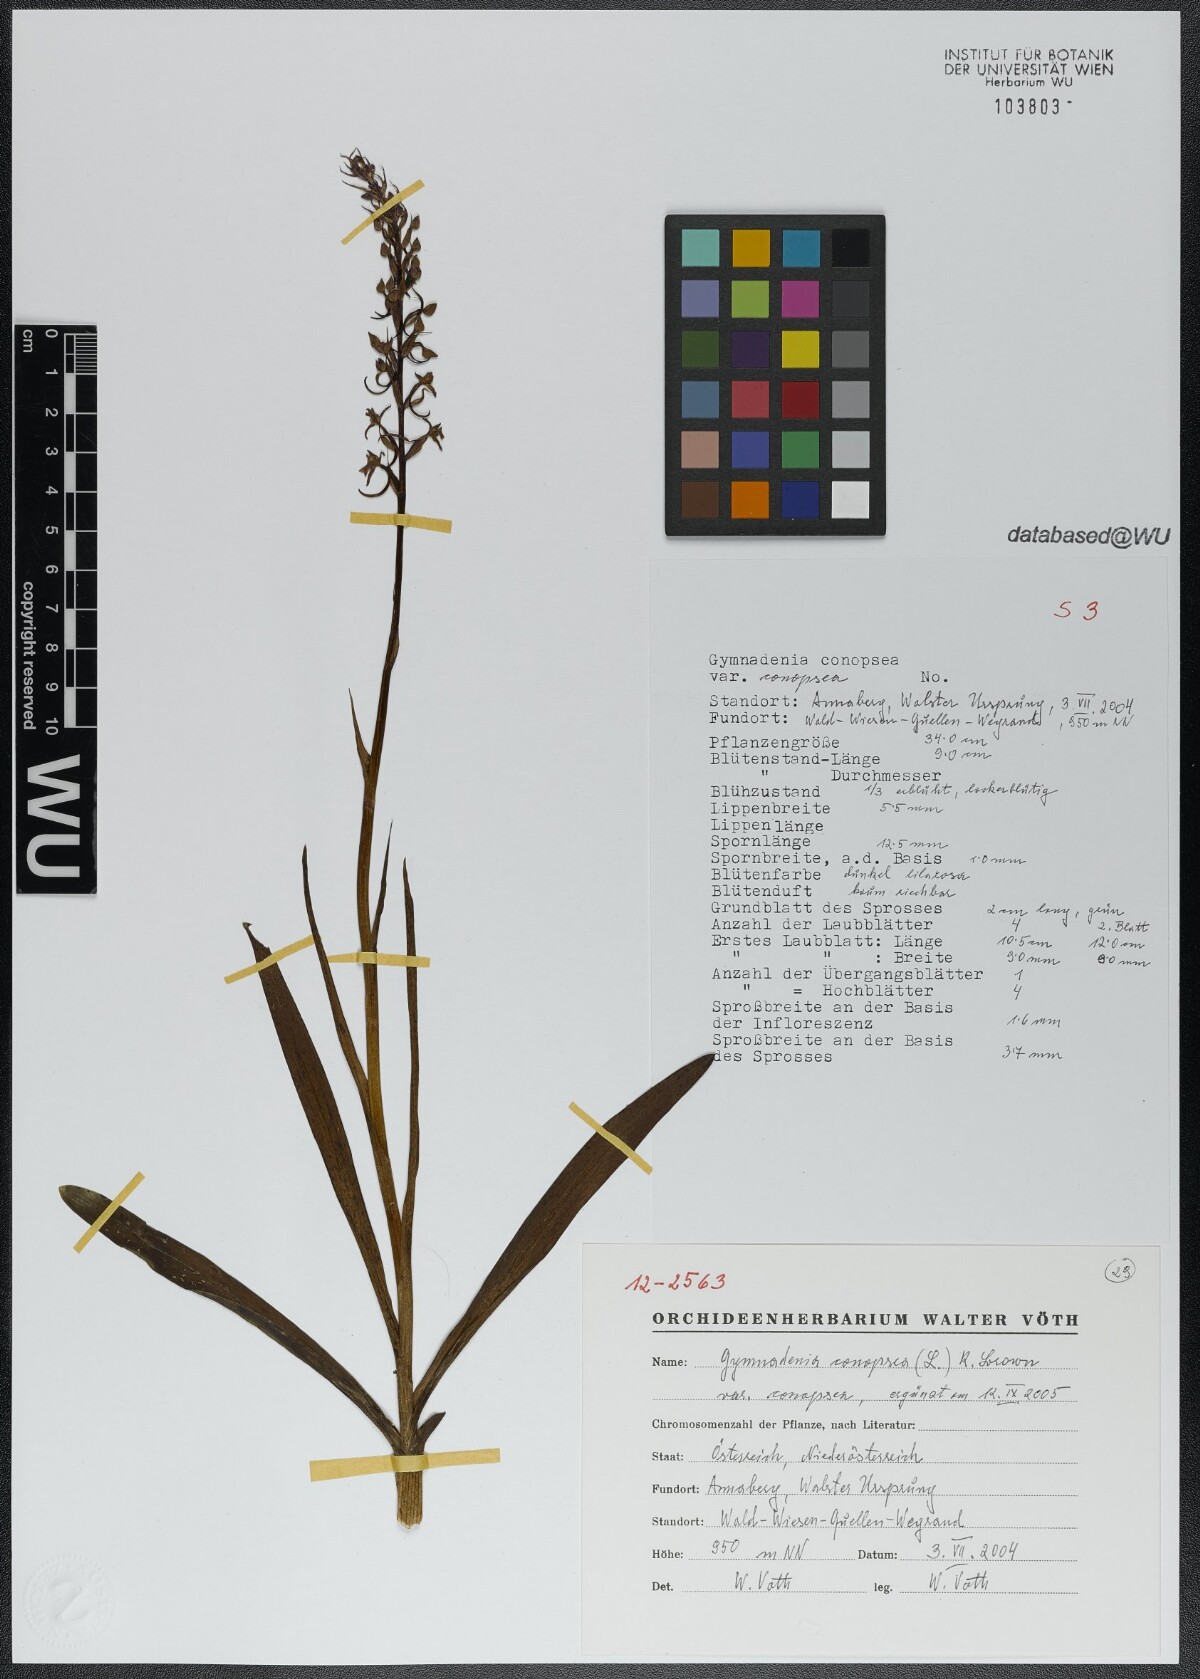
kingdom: Plantae
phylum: Tracheophyta
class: Liliopsida
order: Asparagales
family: Orchidaceae
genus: Gymnadenia
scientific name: Gymnadenia conopsea
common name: Fragrant orchid
